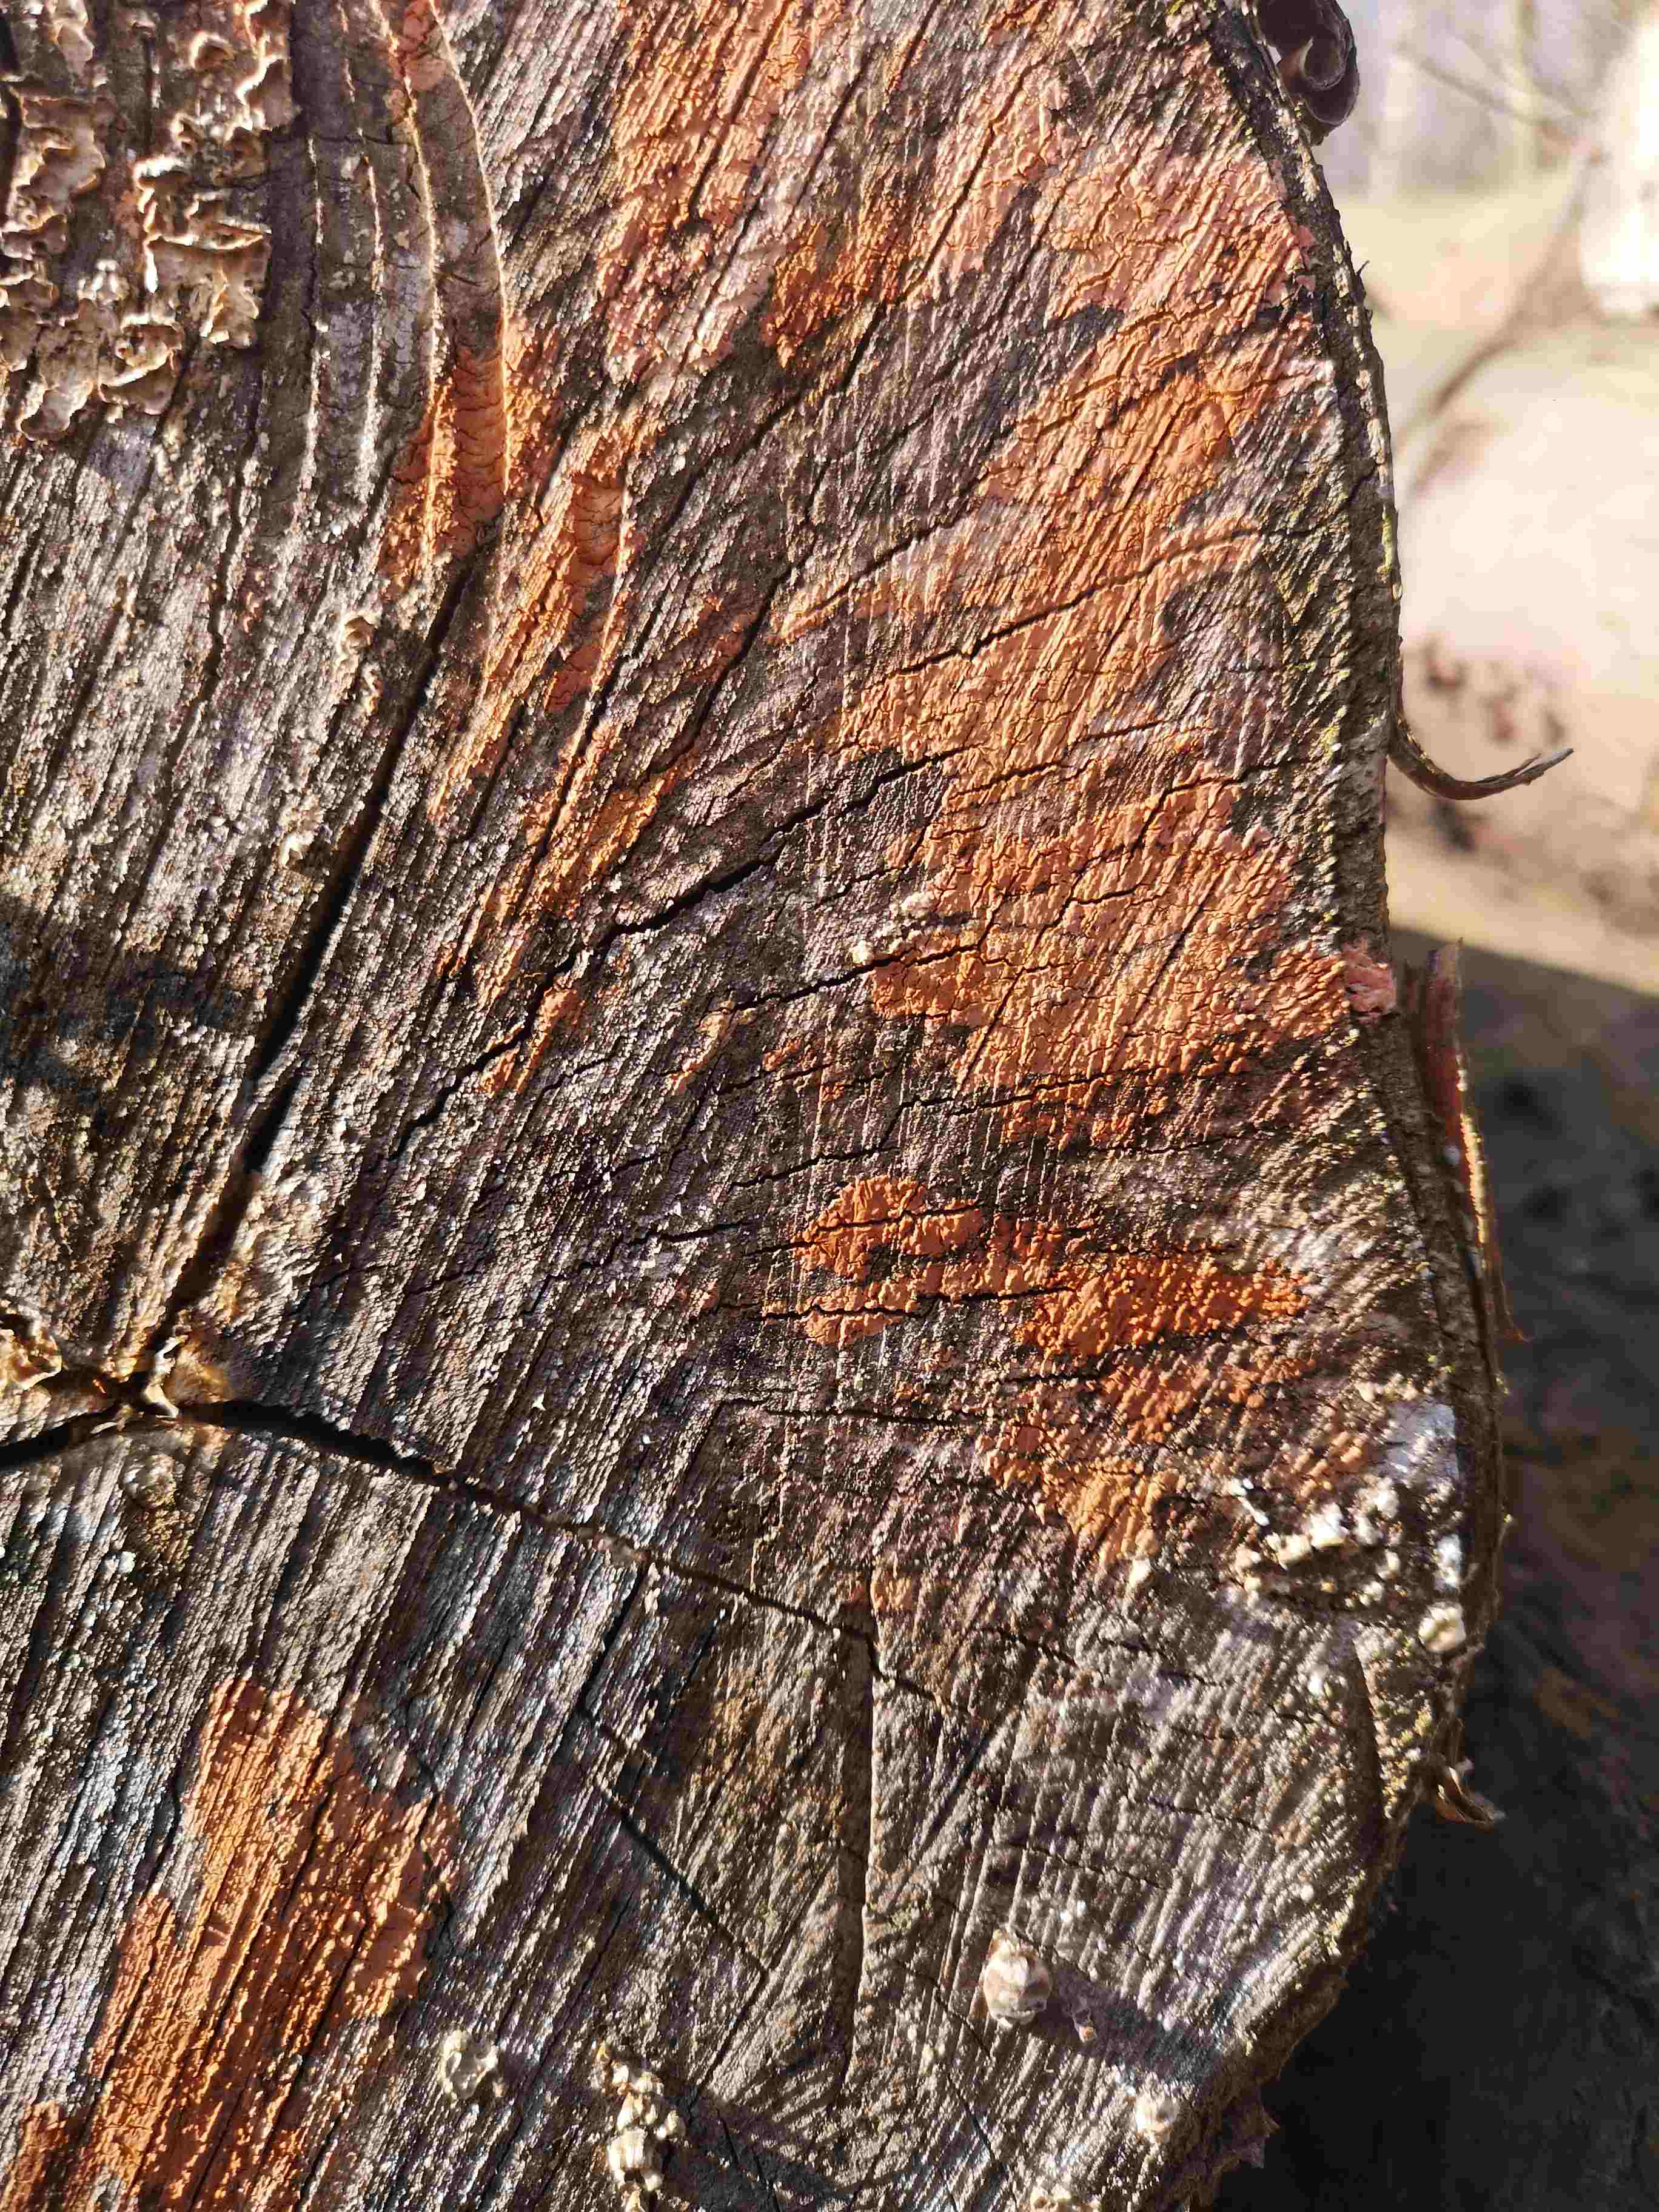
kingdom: Fungi
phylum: Basidiomycota
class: Agaricomycetes
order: Russulales
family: Peniophoraceae
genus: Peniophora
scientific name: Peniophora incarnata
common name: laksefarvet voksskind
